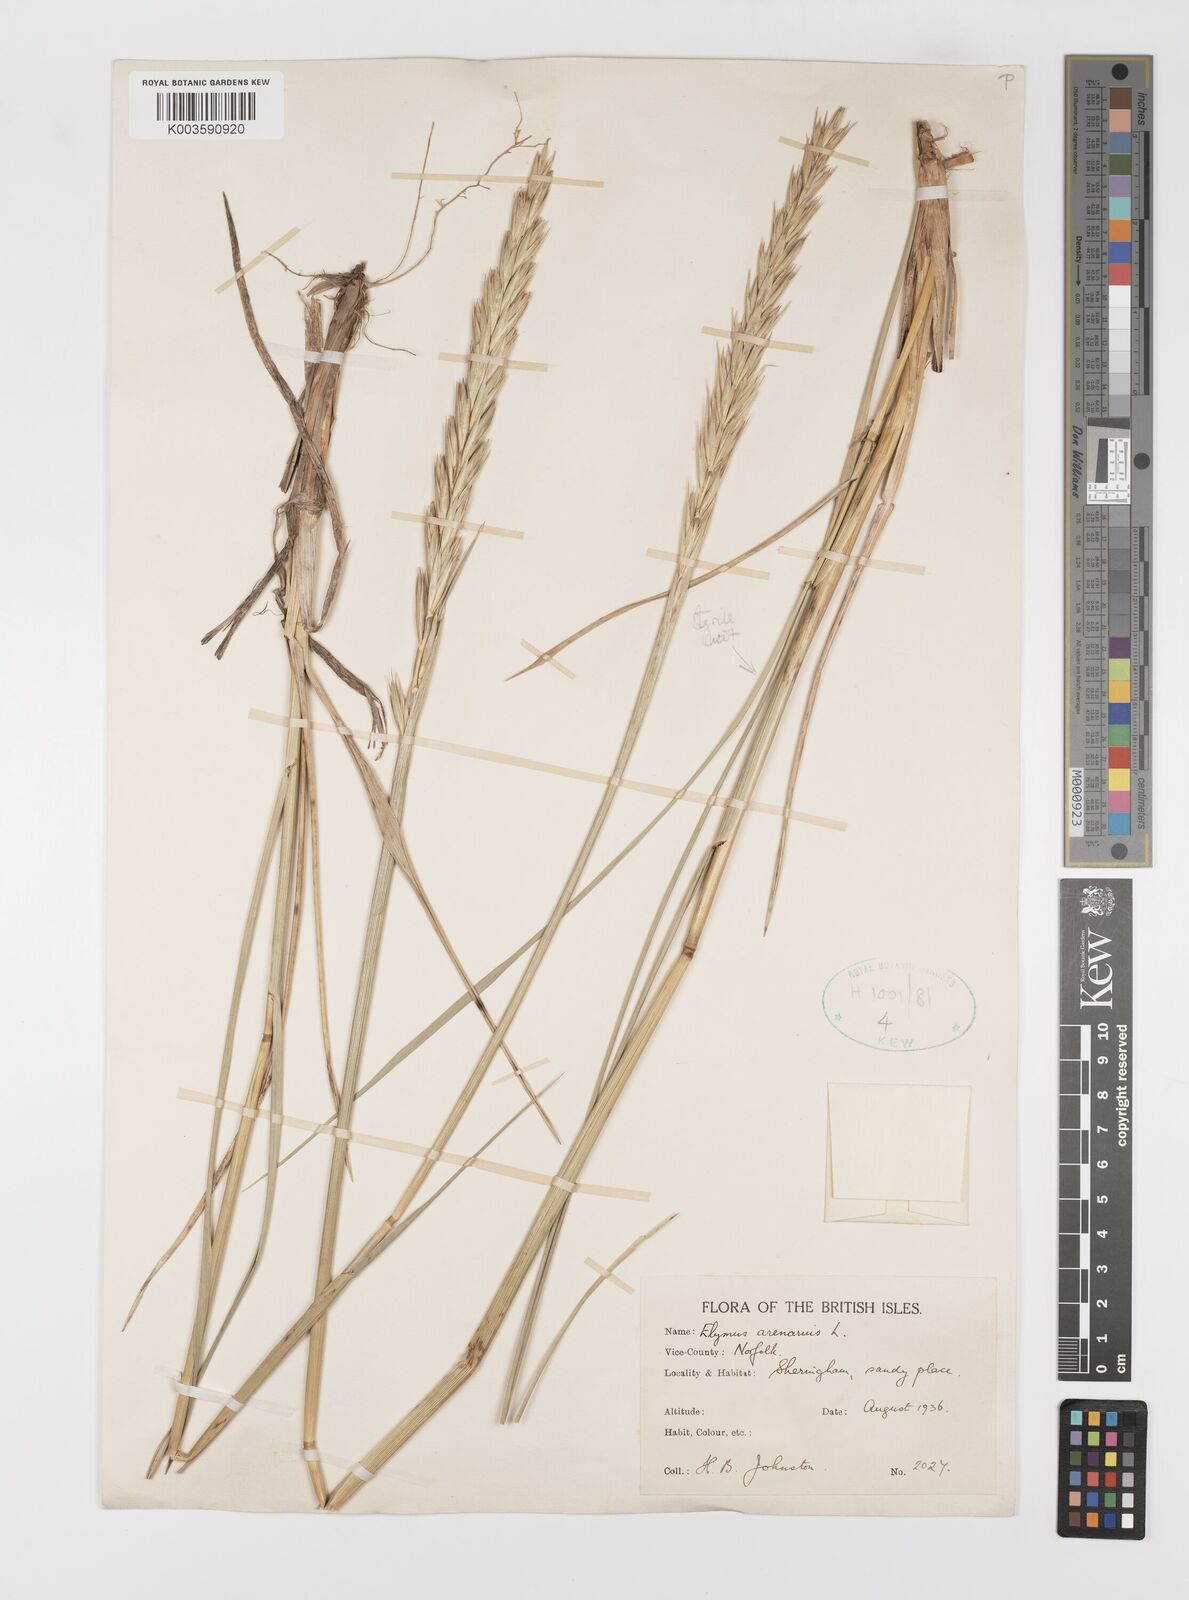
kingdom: Plantae
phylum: Tracheophyta
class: Liliopsida
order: Poales
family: Poaceae
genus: Leymus
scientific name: Leymus arenarius
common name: Lyme-grass
